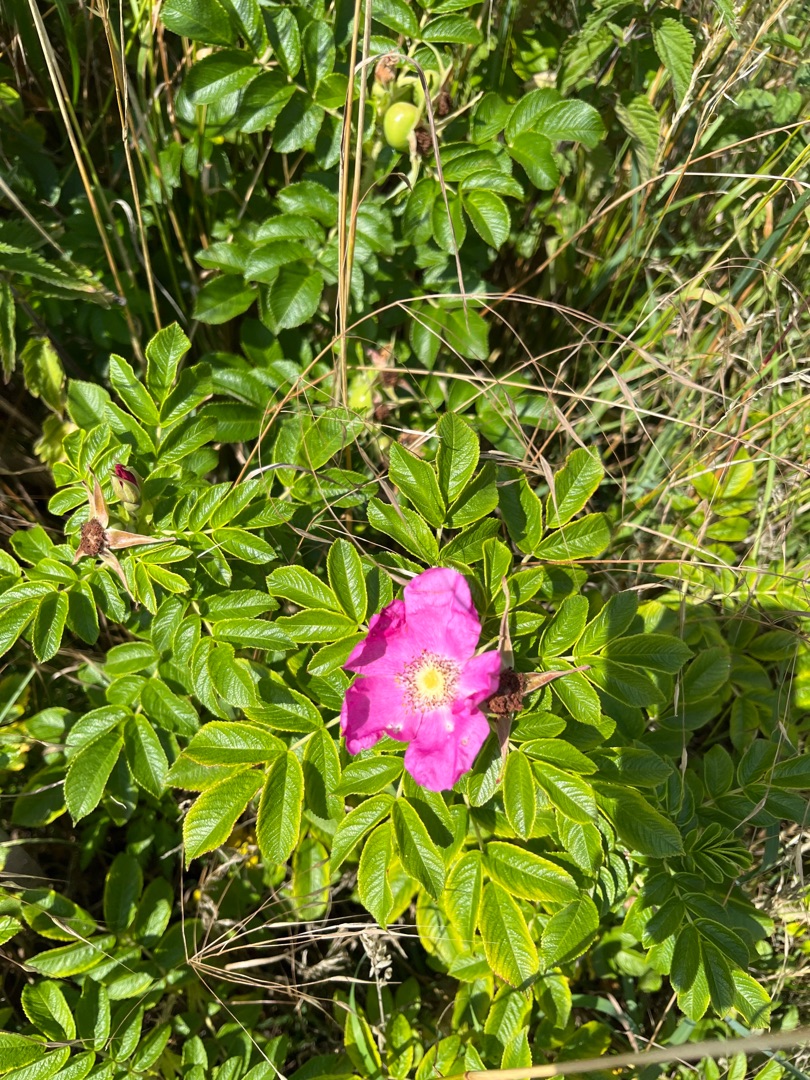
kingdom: Plantae
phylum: Tracheophyta
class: Magnoliopsida
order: Rosales
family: Rosaceae
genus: Rosa
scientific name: Rosa rugosa
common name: Rynket rose
